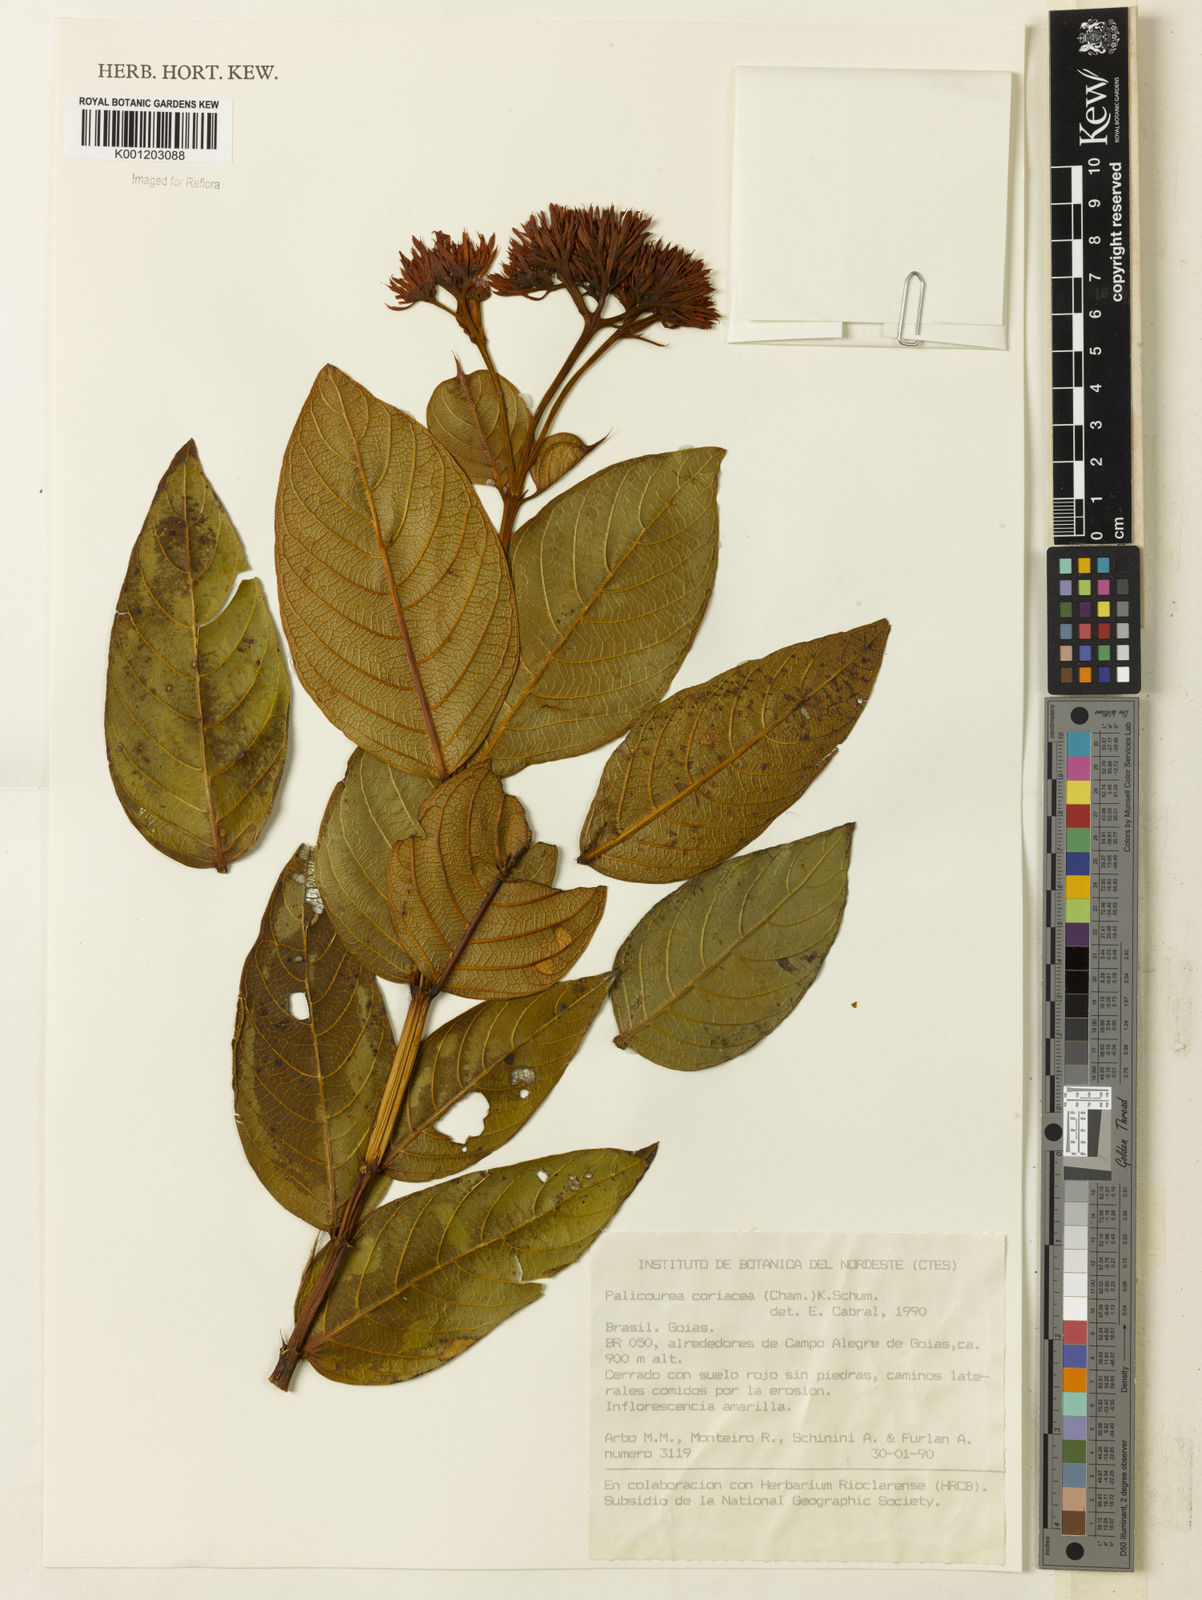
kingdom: Plantae
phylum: Tracheophyta
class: Magnoliopsida
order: Gentianales
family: Rubiaceae
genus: Palicourea
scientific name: Palicourea coriacea
